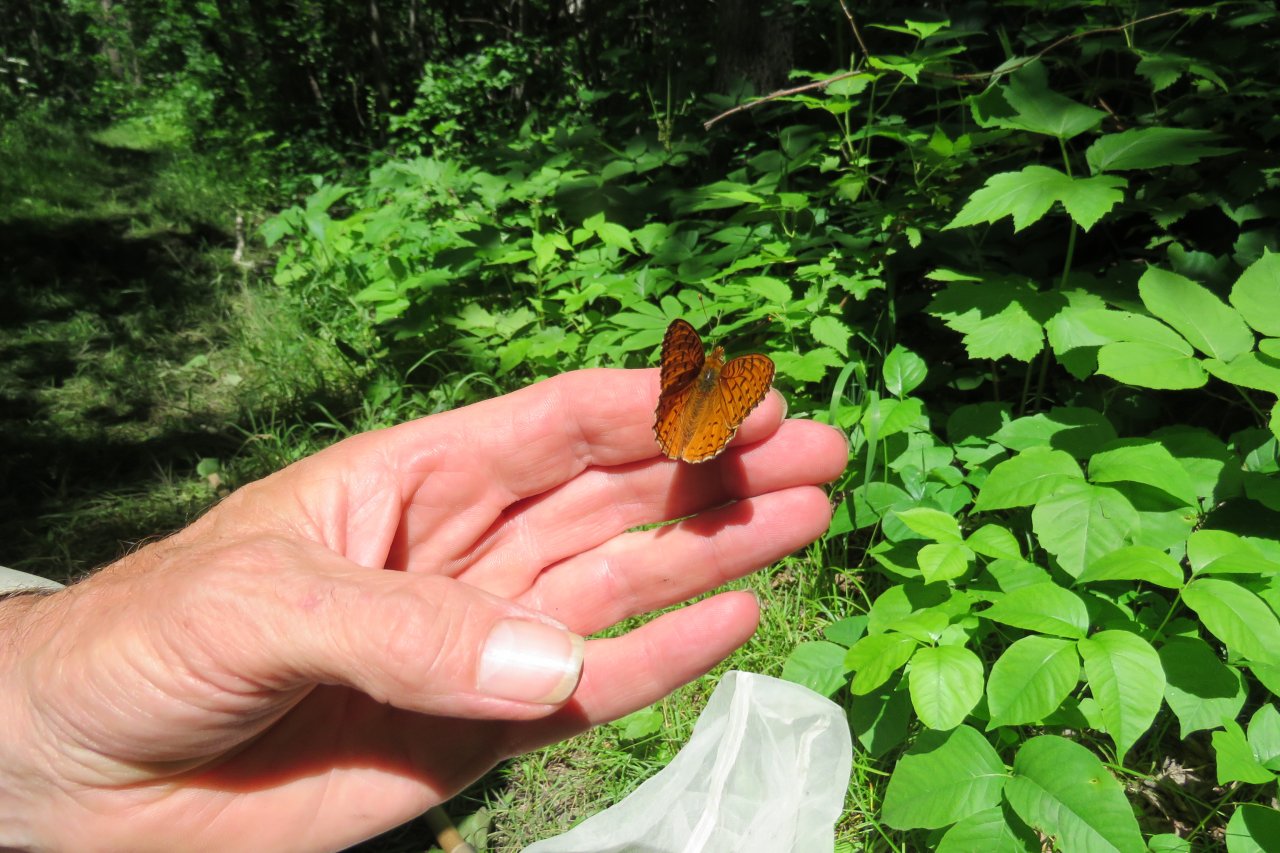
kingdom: Animalia
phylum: Arthropoda
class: Insecta
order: Lepidoptera
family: Nymphalidae
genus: Speyeria
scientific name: Speyeria aphrodite
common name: Aphrodite Fritillary
